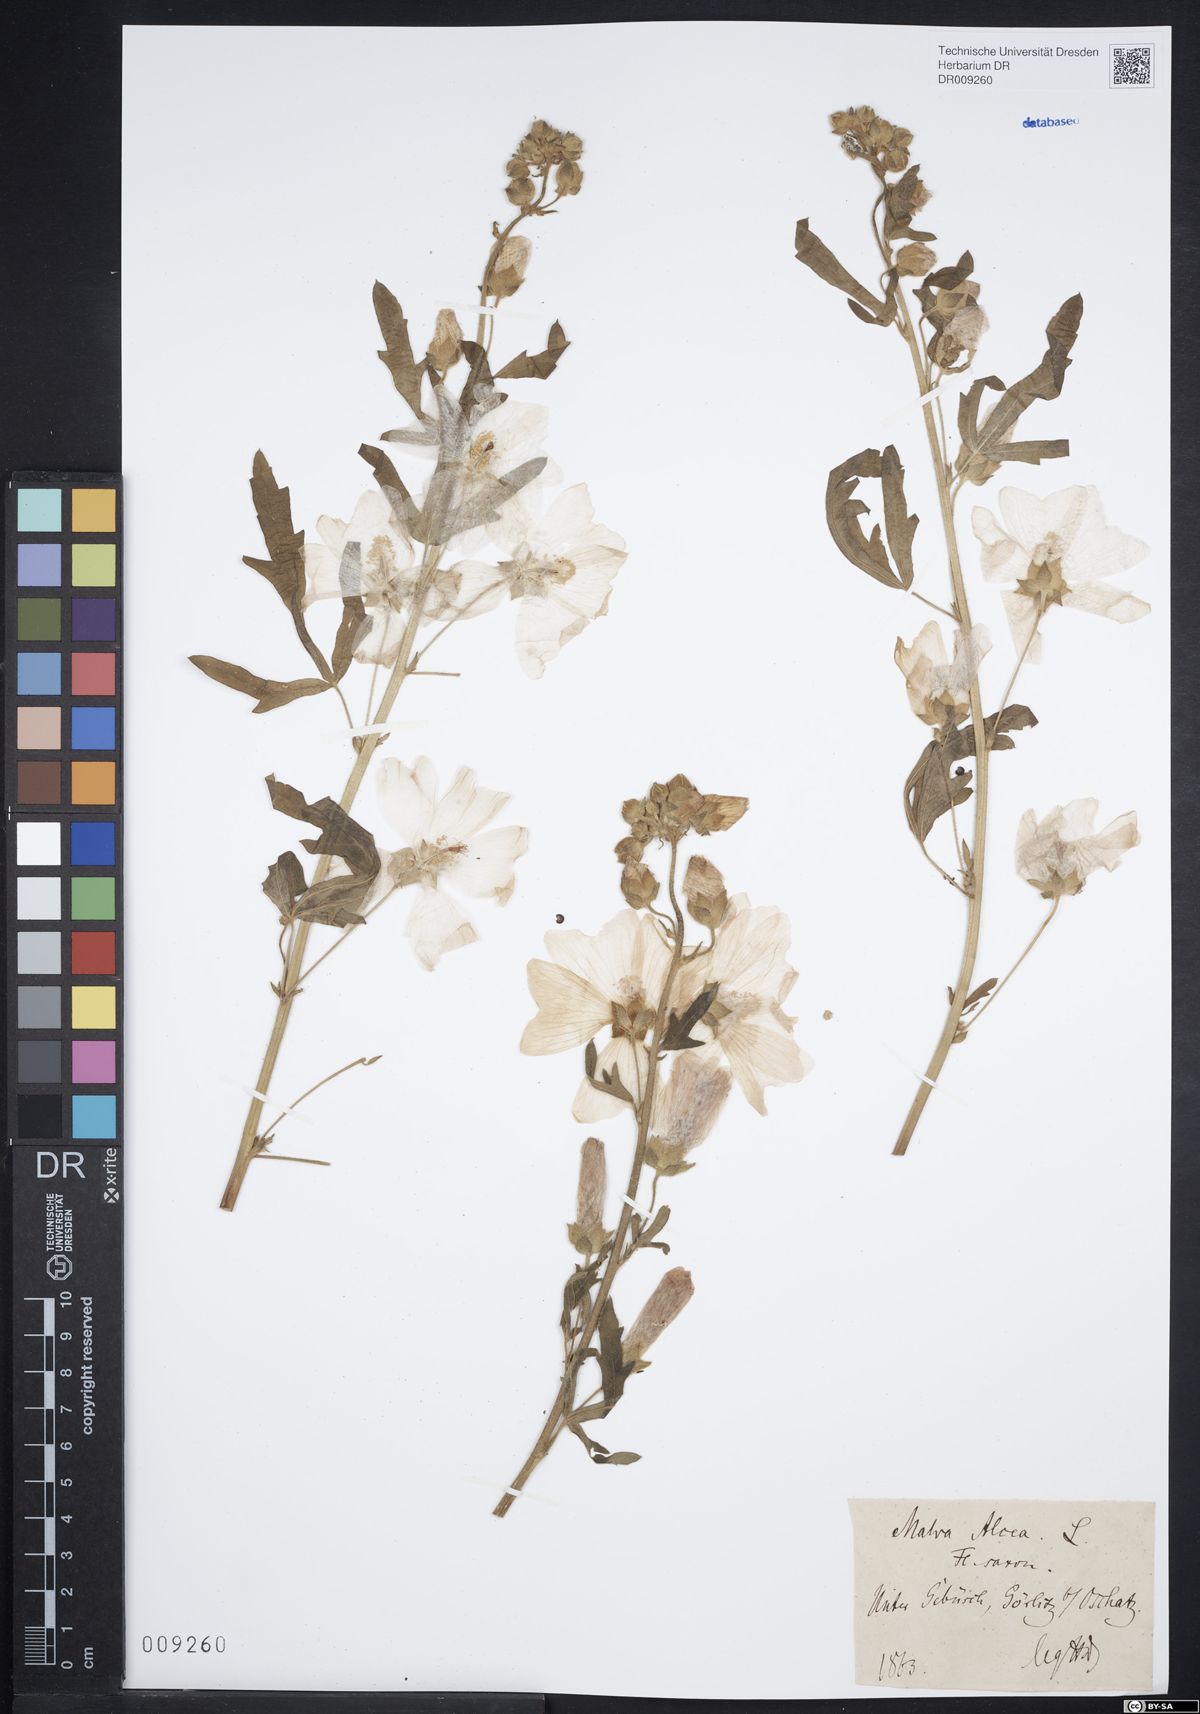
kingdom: Plantae
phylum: Tracheophyta
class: Magnoliopsida
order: Malvales
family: Malvaceae
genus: Malva
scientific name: Malva alcea
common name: Greater musk-mallow
